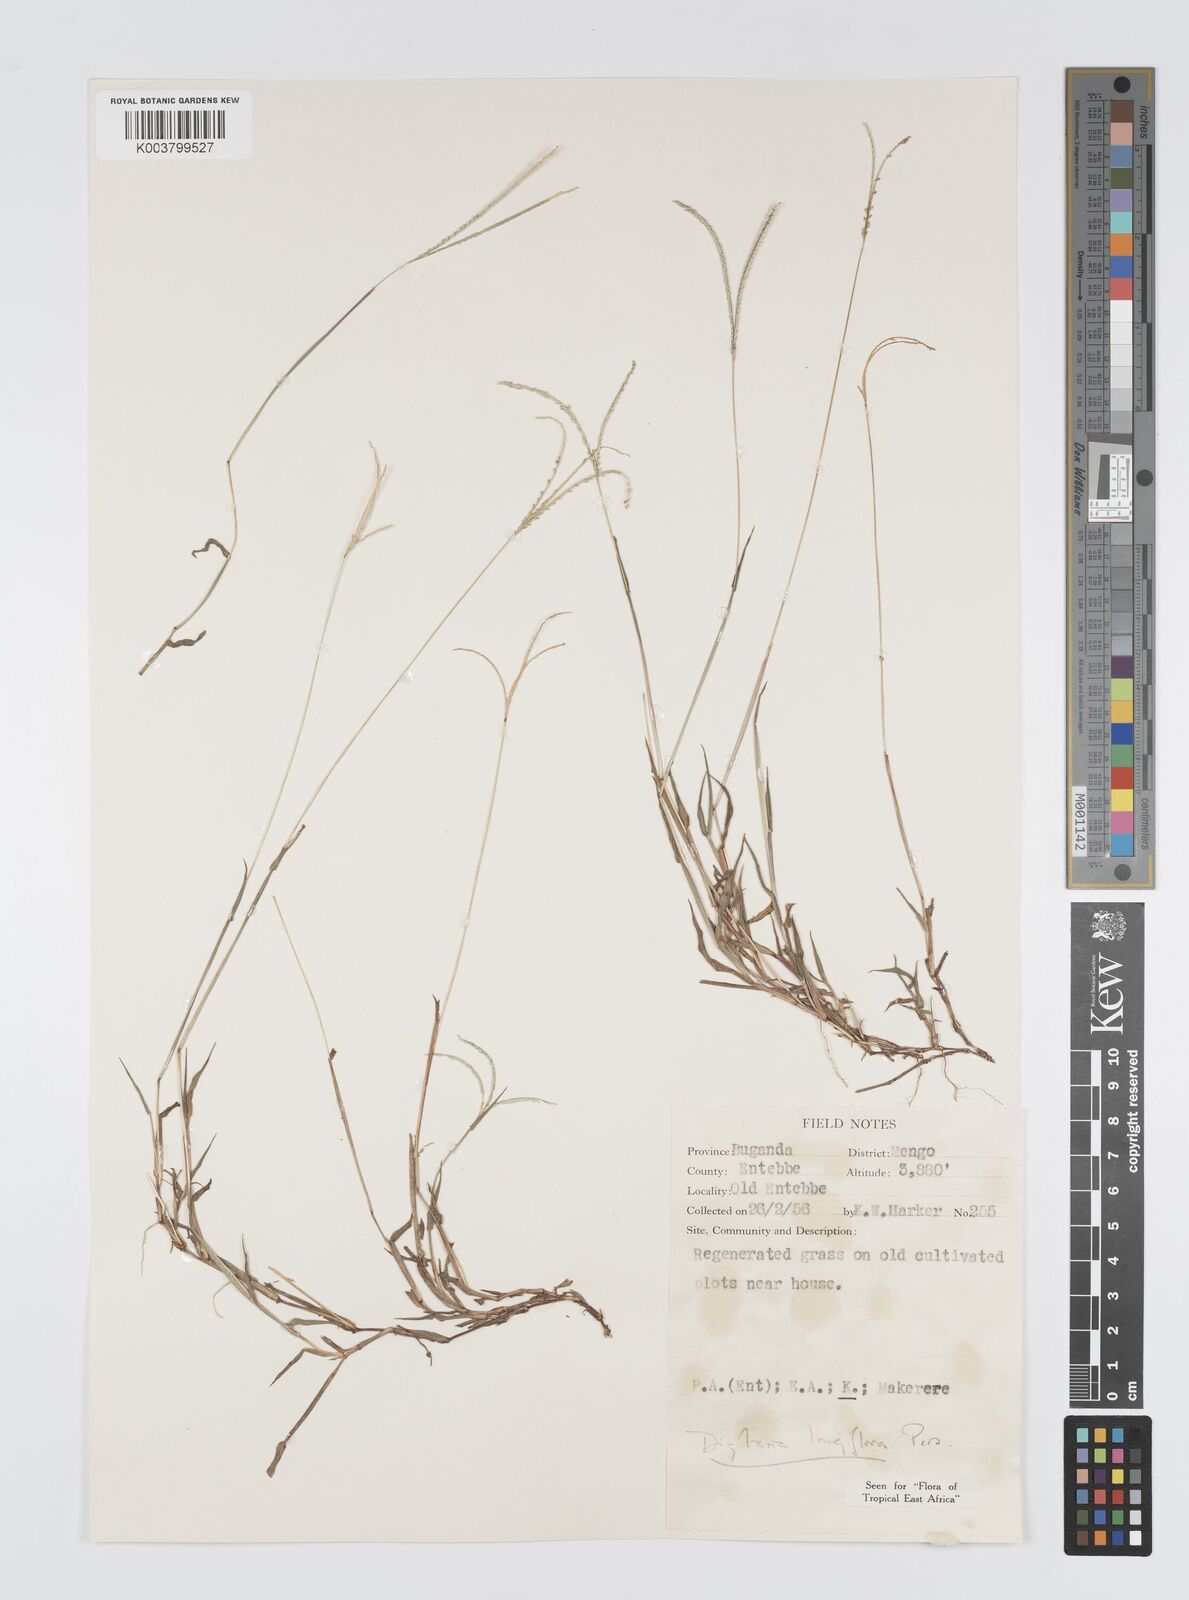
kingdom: Plantae
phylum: Tracheophyta
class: Liliopsida
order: Poales
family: Poaceae
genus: Digitaria
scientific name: Digitaria longiflora
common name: Wire crabgrass
